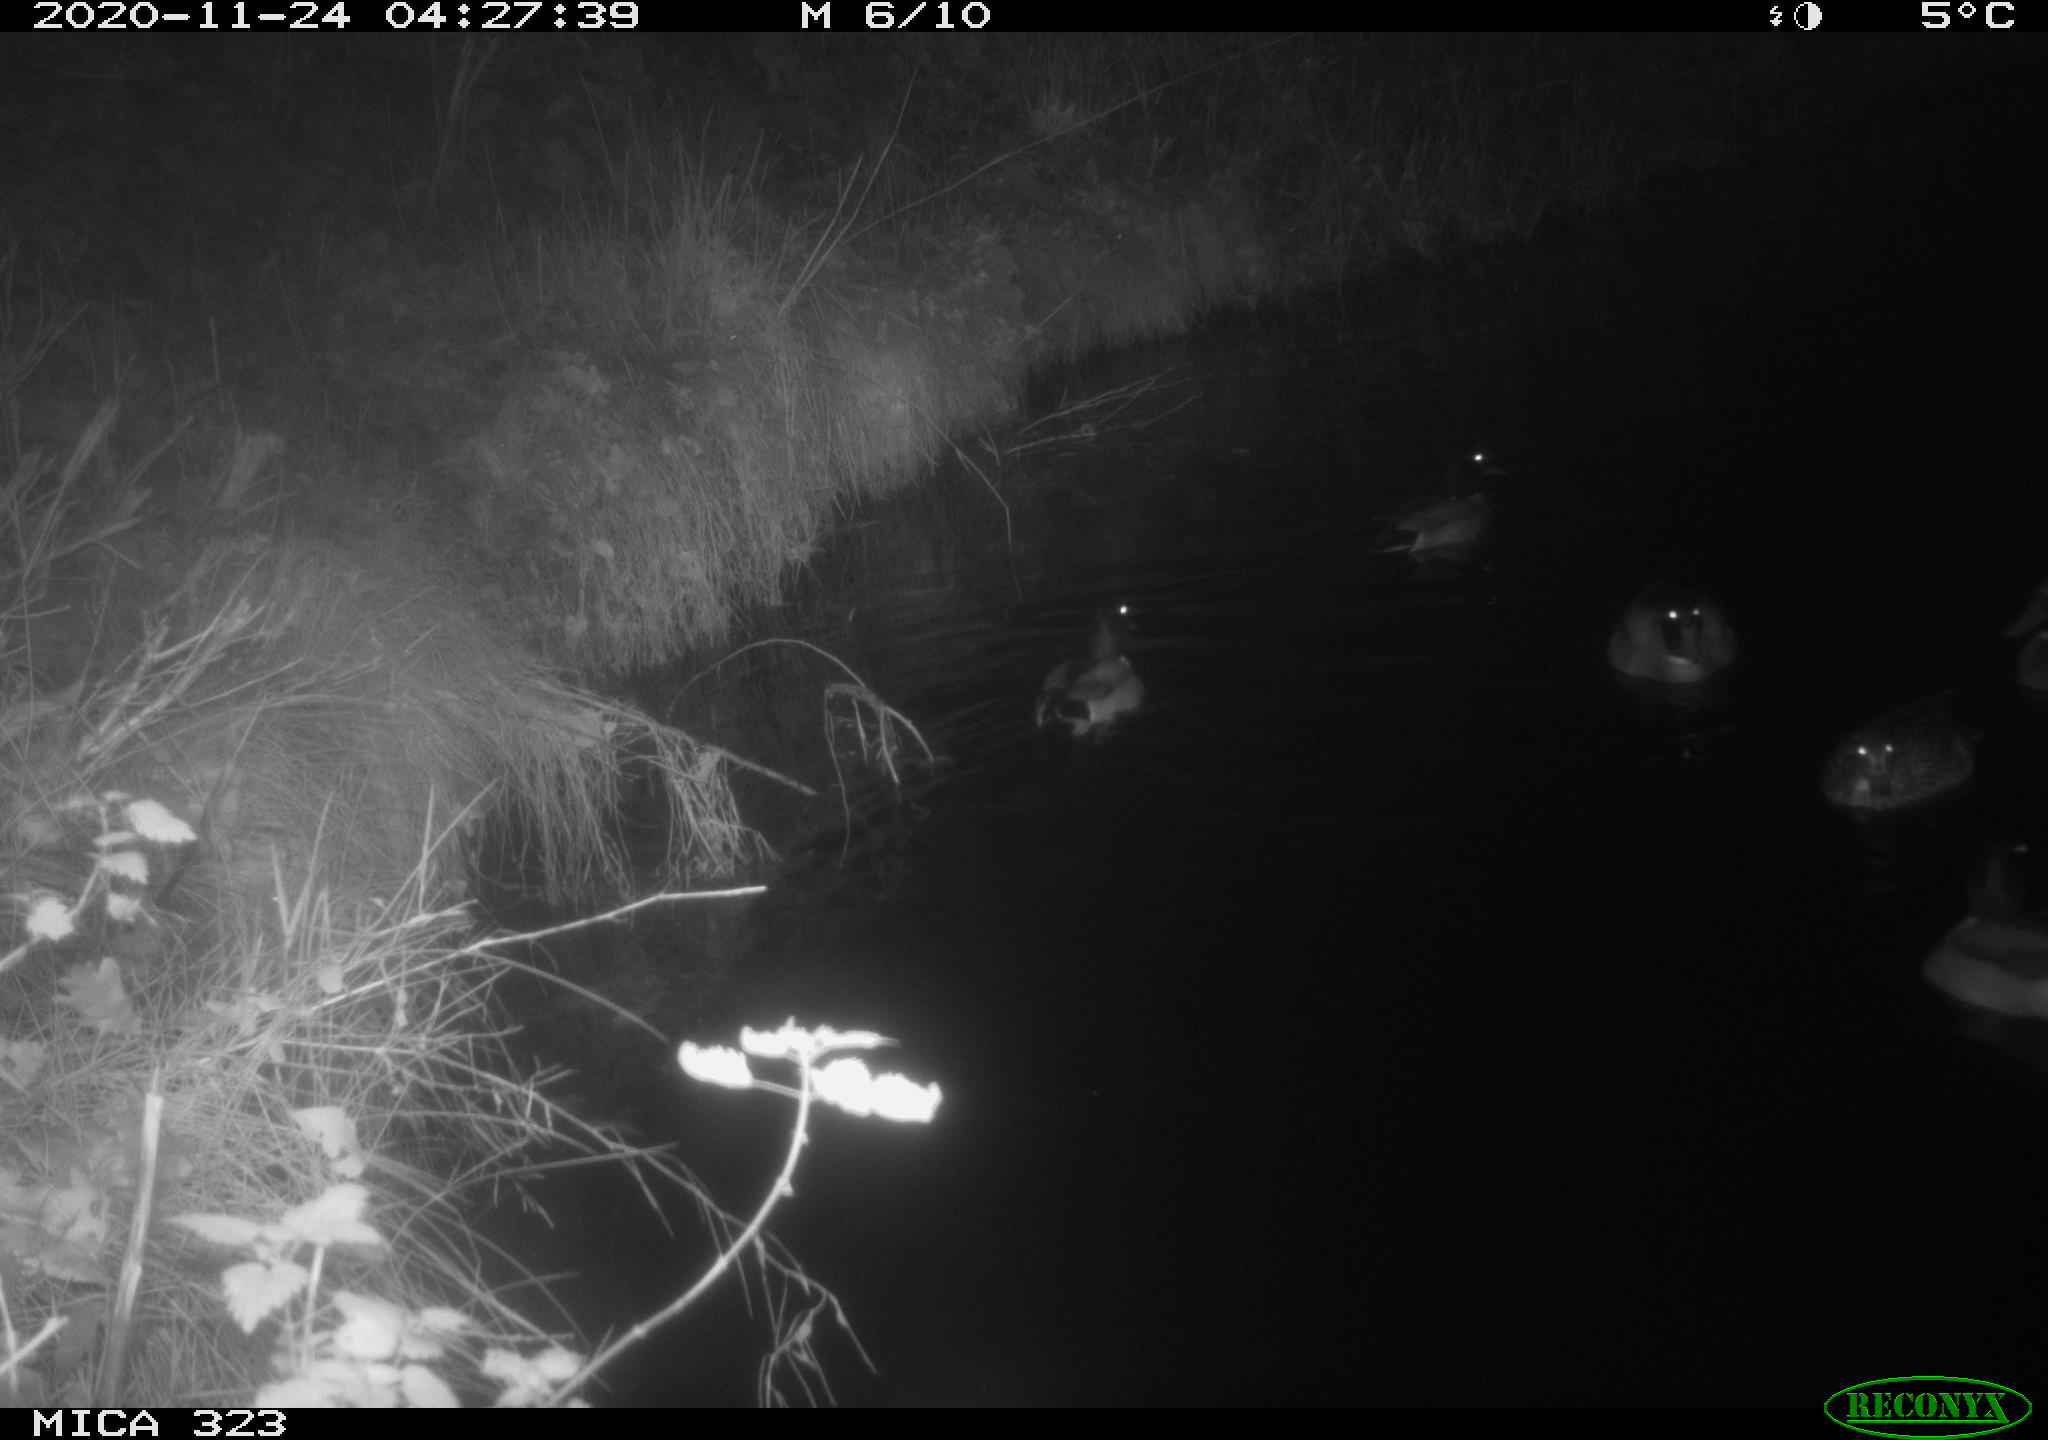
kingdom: Animalia
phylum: Chordata
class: Aves
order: Anseriformes
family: Anatidae
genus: Anas
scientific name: Anas platyrhynchos
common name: Mallard
